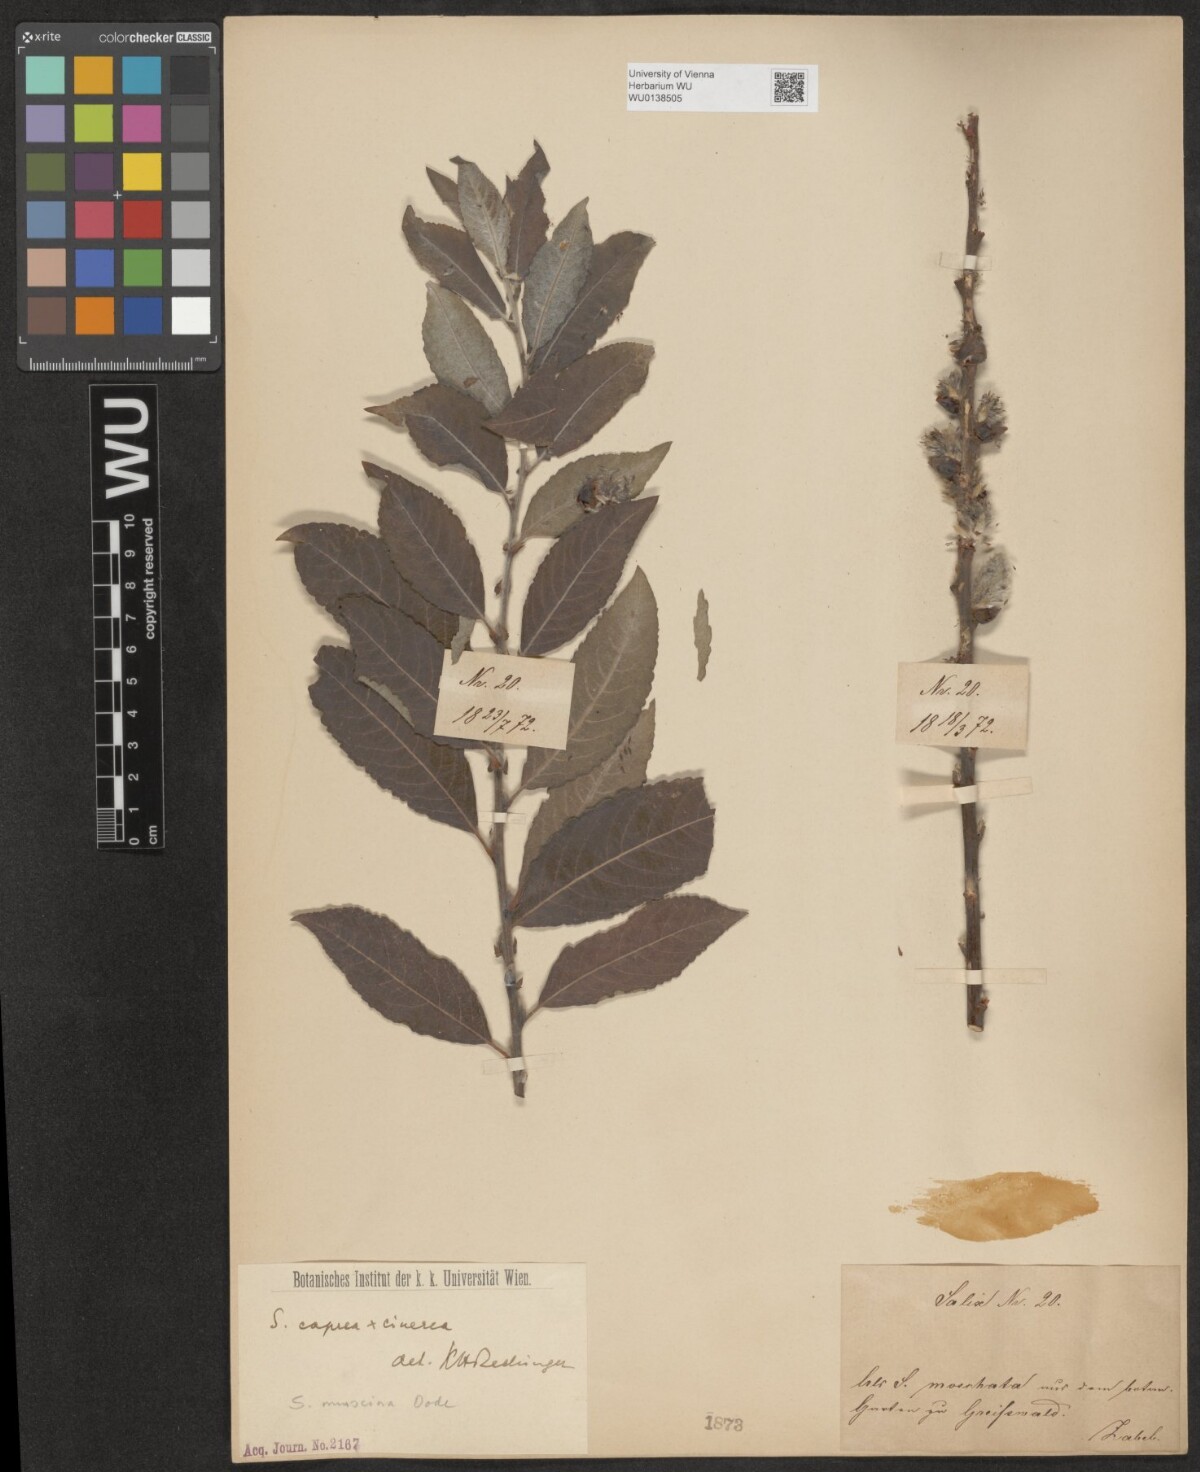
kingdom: Plantae
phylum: Tracheophyta
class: Magnoliopsida
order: Malpighiales
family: Salicaceae
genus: Salix
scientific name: Salix aegyptiaca
